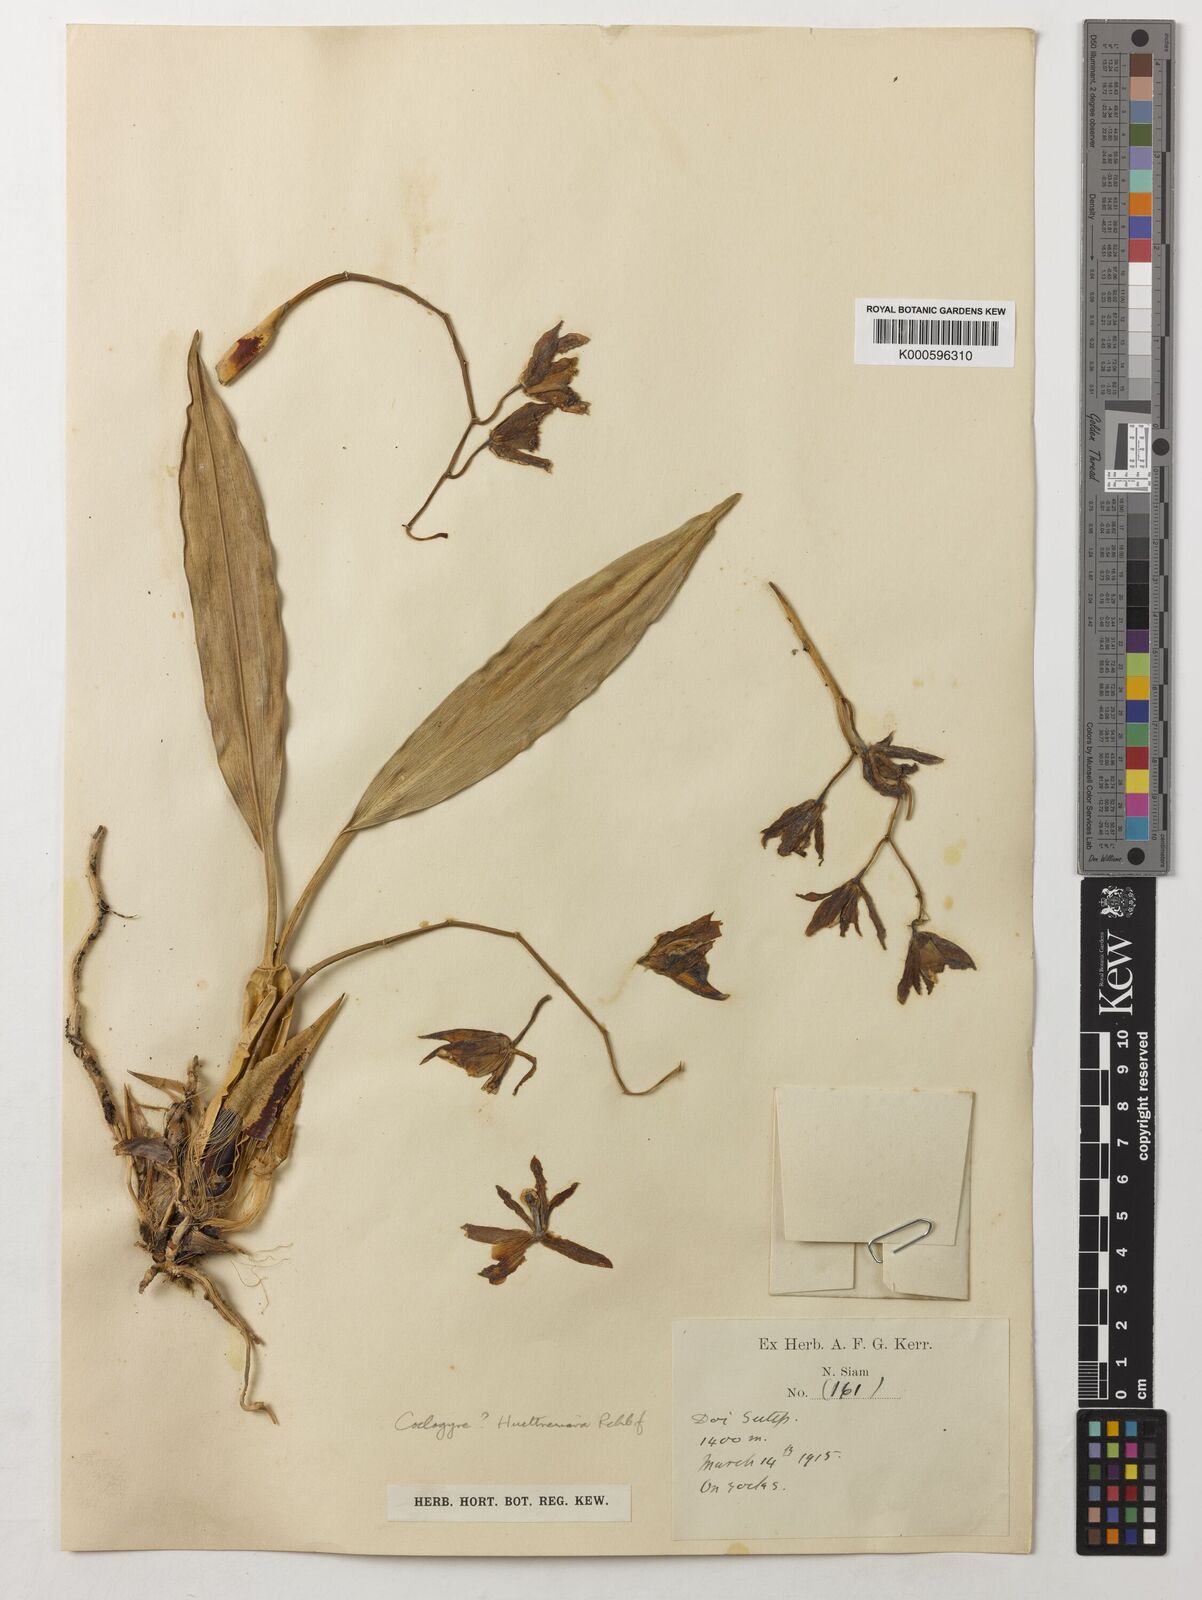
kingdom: Plantae
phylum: Tracheophyta
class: Liliopsida
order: Asparagales
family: Orchidaceae
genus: Coelogyne
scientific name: Coelogyne huettneriana
